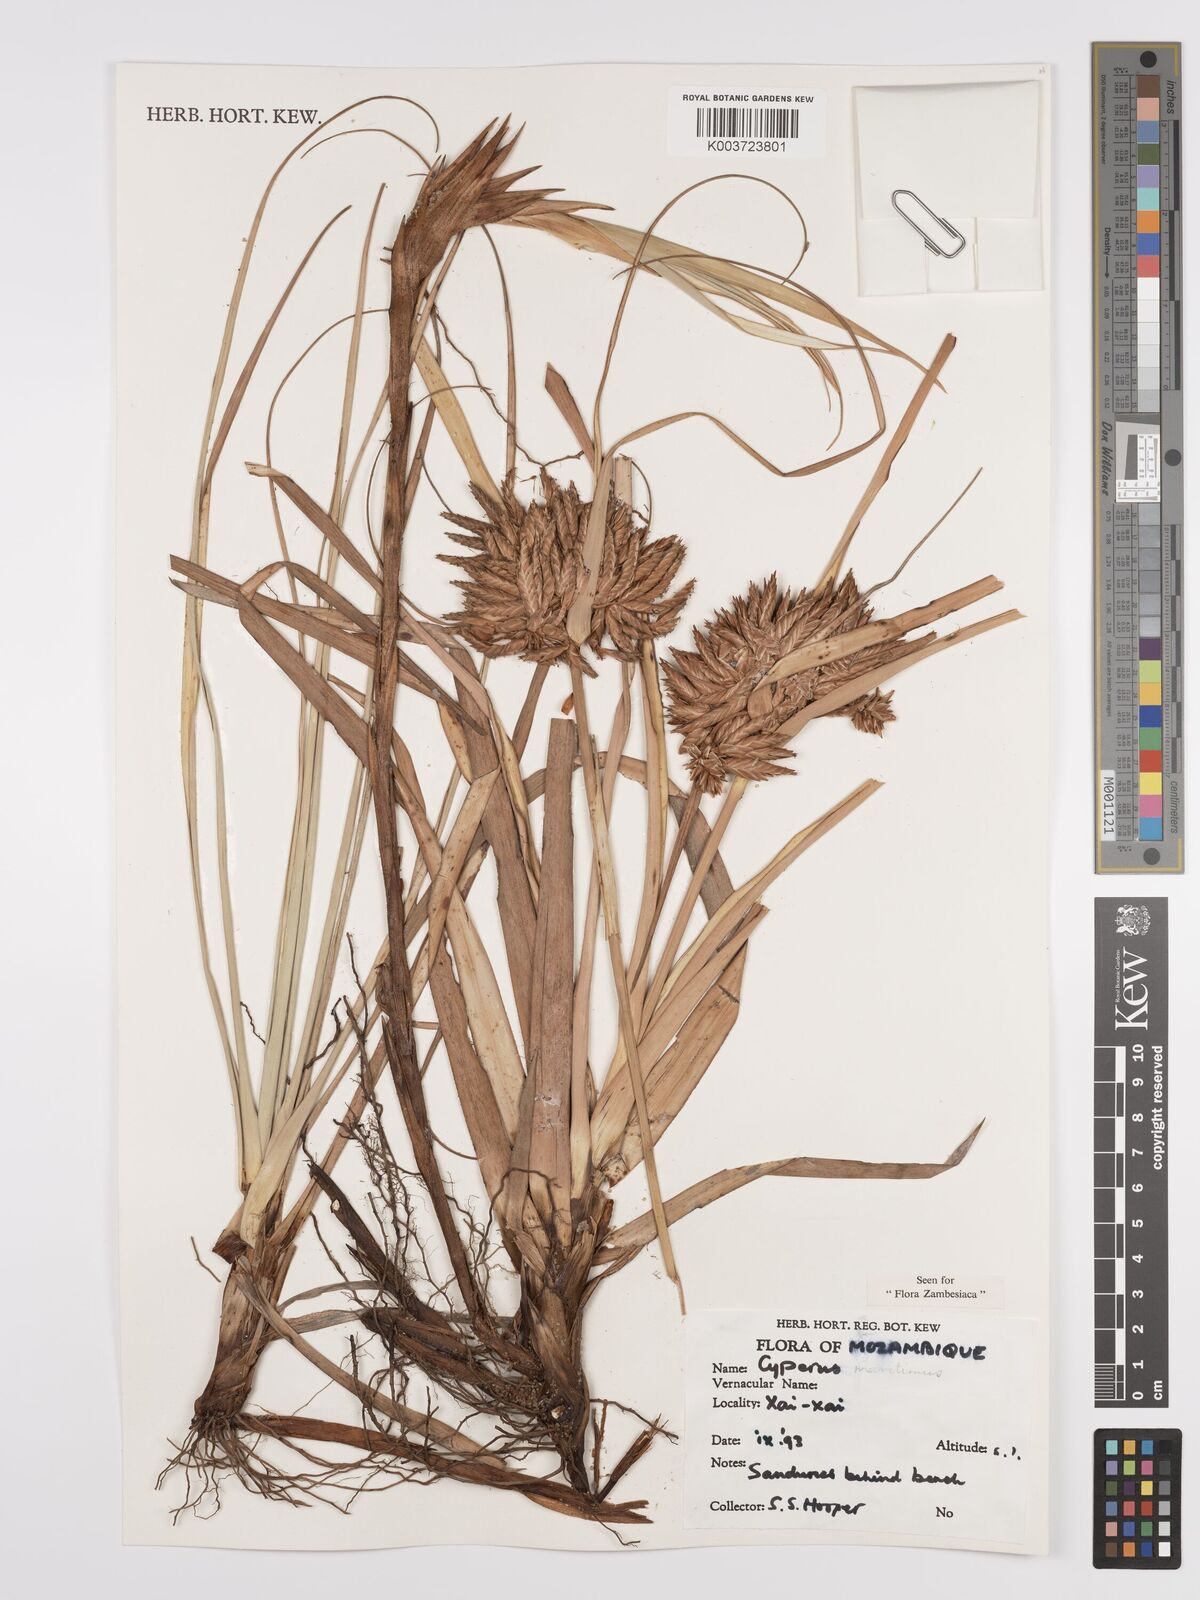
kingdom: Plantae
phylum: Tracheophyta
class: Liliopsida
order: Poales
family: Cyperaceae
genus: Cyperus
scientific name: Cyperus crassipes
